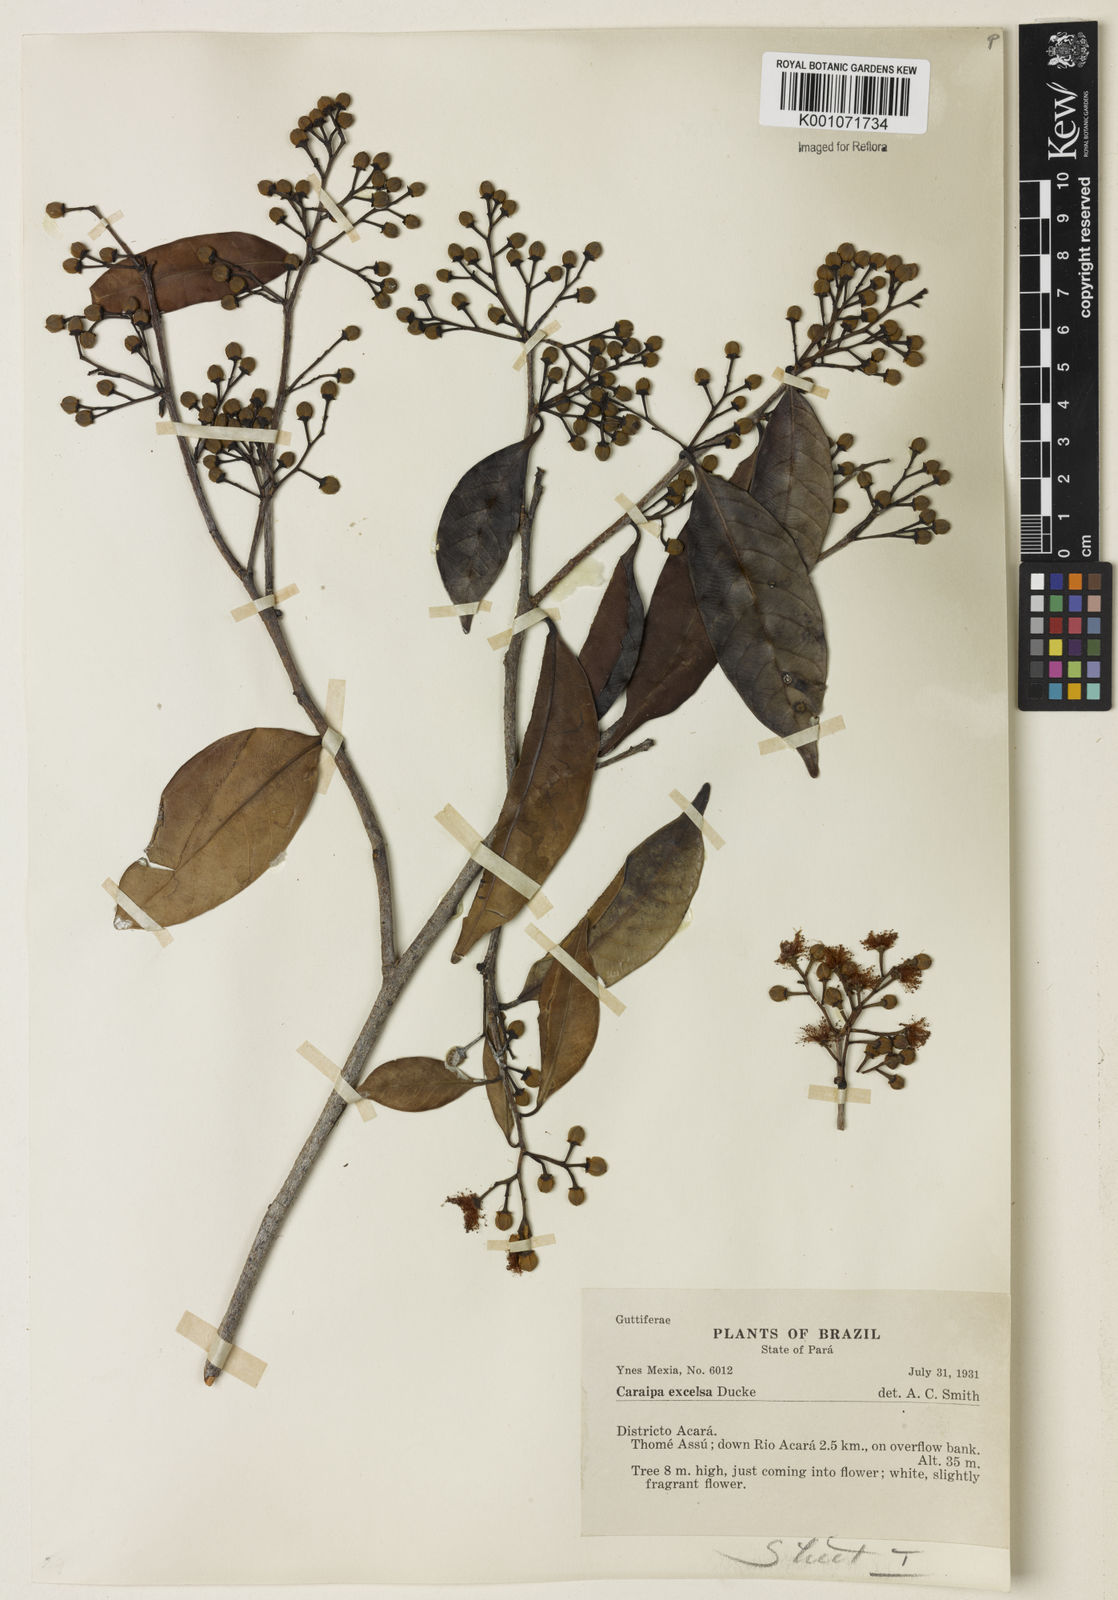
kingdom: Plantae
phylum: Tracheophyta
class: Magnoliopsida
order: Malpighiales
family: Calophyllaceae
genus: Caraipa
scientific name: Caraipa densifolia
